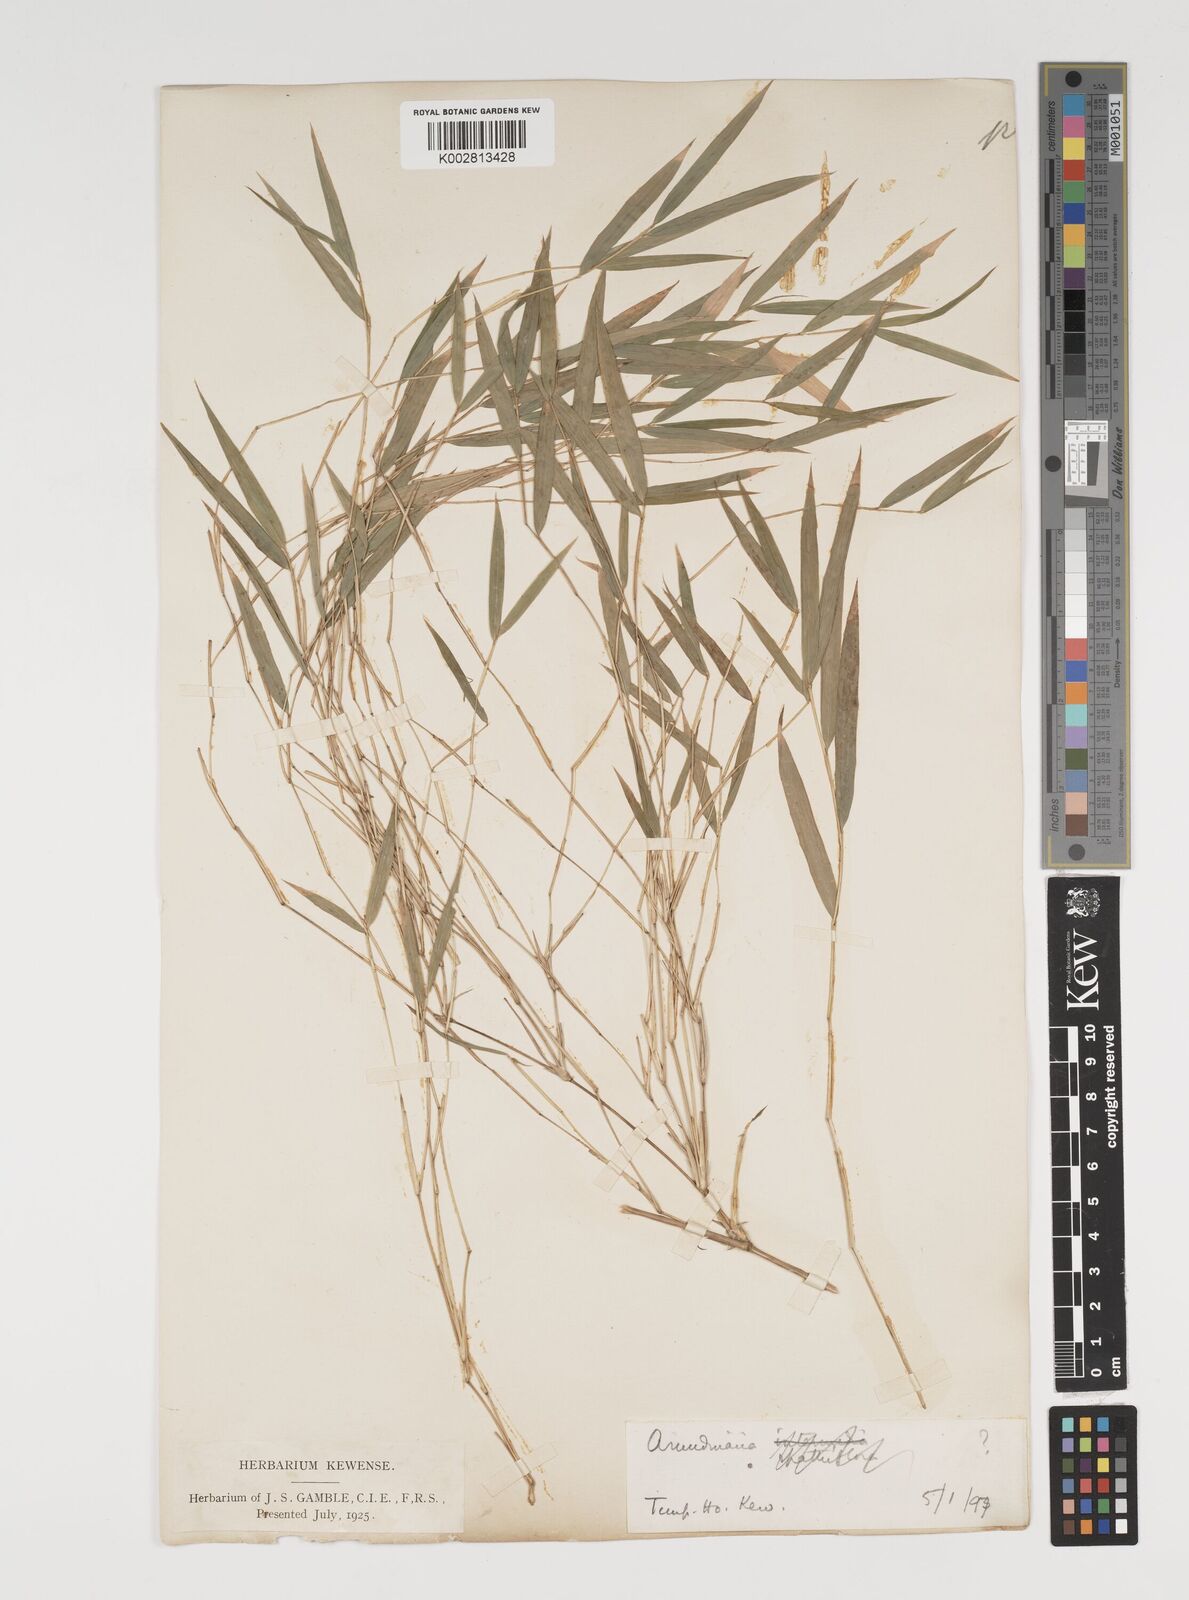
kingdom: Plantae
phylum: Tracheophyta
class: Liliopsida
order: Poales
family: Poaceae
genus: Thamnocalamus
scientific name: Thamnocalamus spathiflorus
